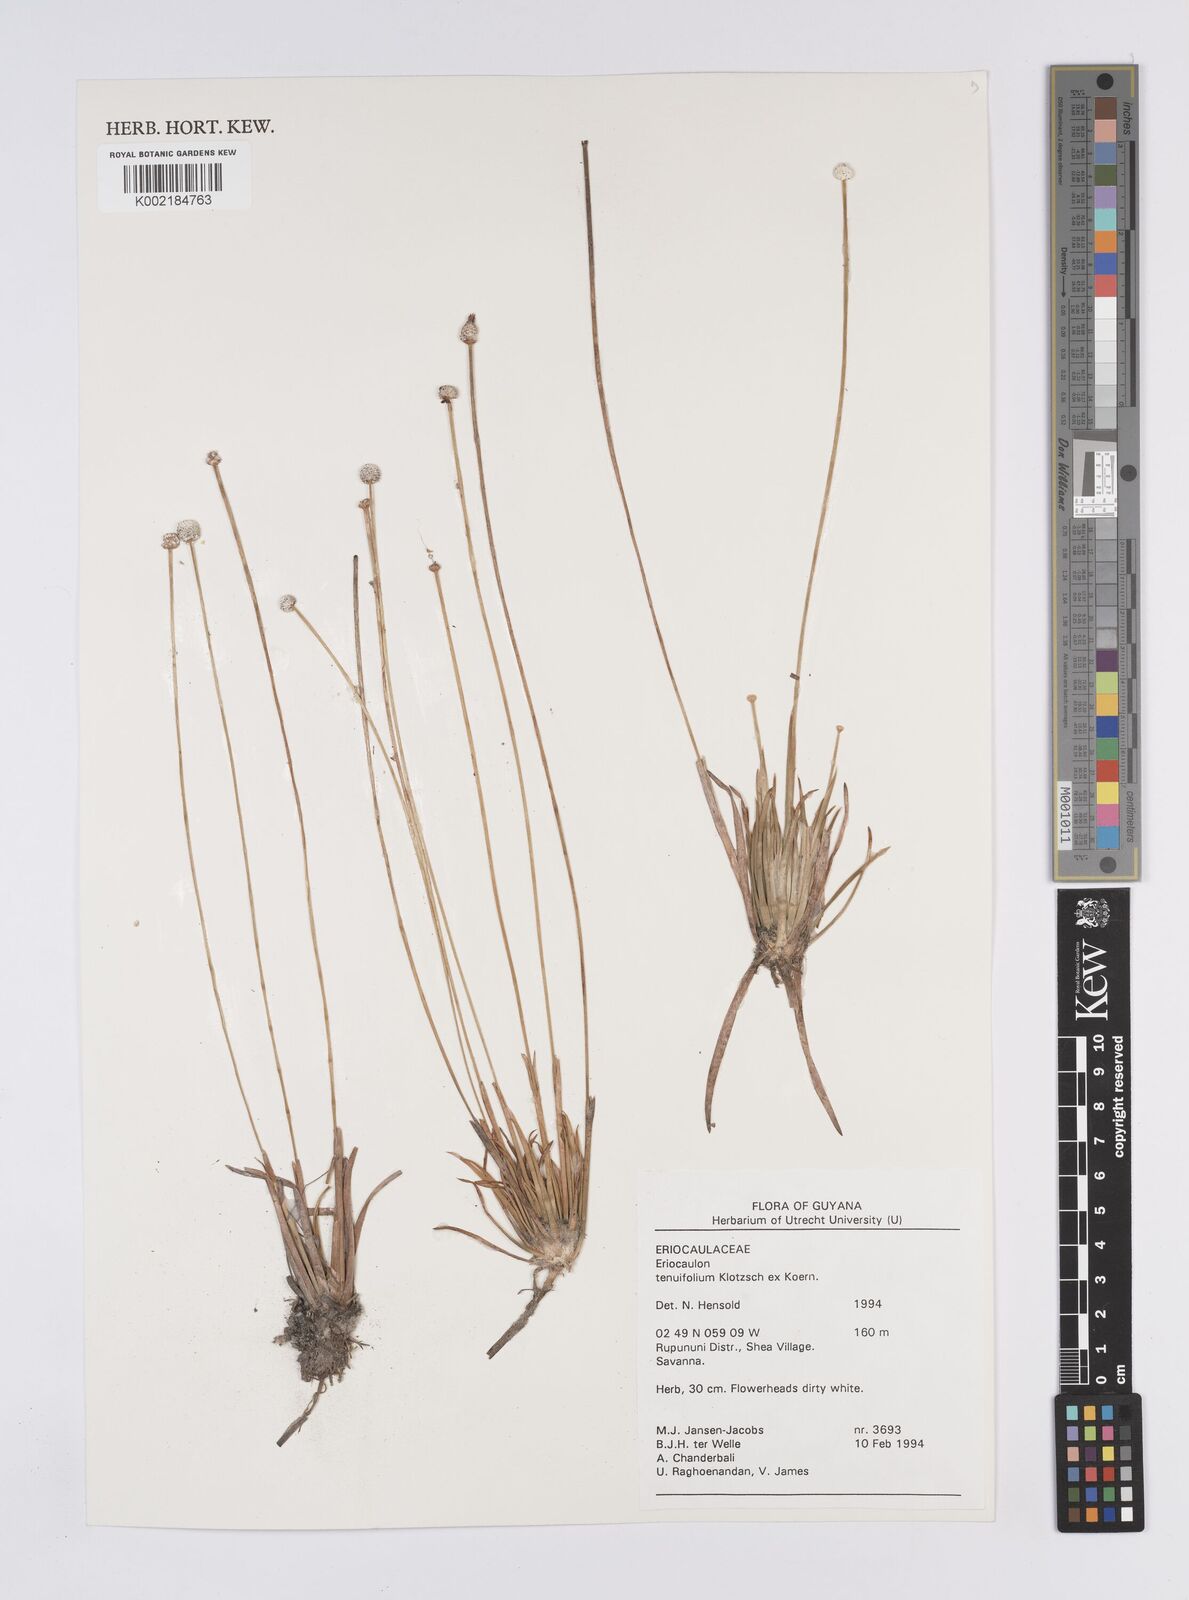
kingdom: Plantae
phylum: Tracheophyta
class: Liliopsida
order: Poales
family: Eriocaulaceae
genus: Eriocaulon
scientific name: Eriocaulon tenuifolium
